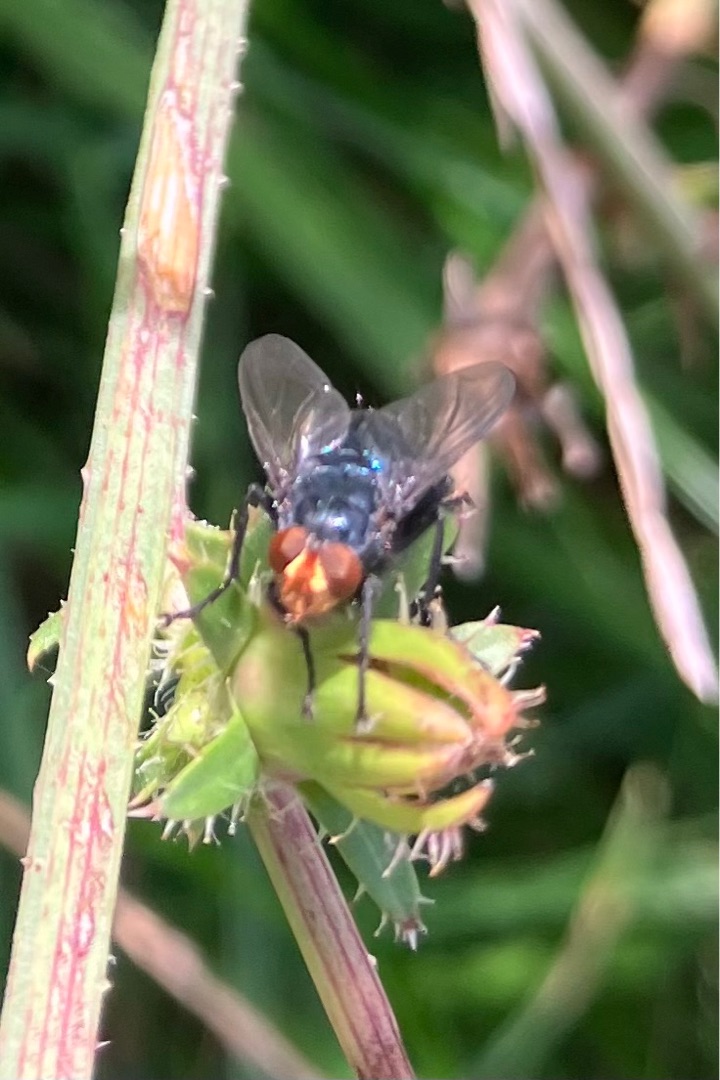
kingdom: Animalia
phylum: Arthropoda
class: Insecta
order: Diptera
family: Calliphoridae
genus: Cynomya
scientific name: Cynomya mortuorum
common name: Dødsflue
